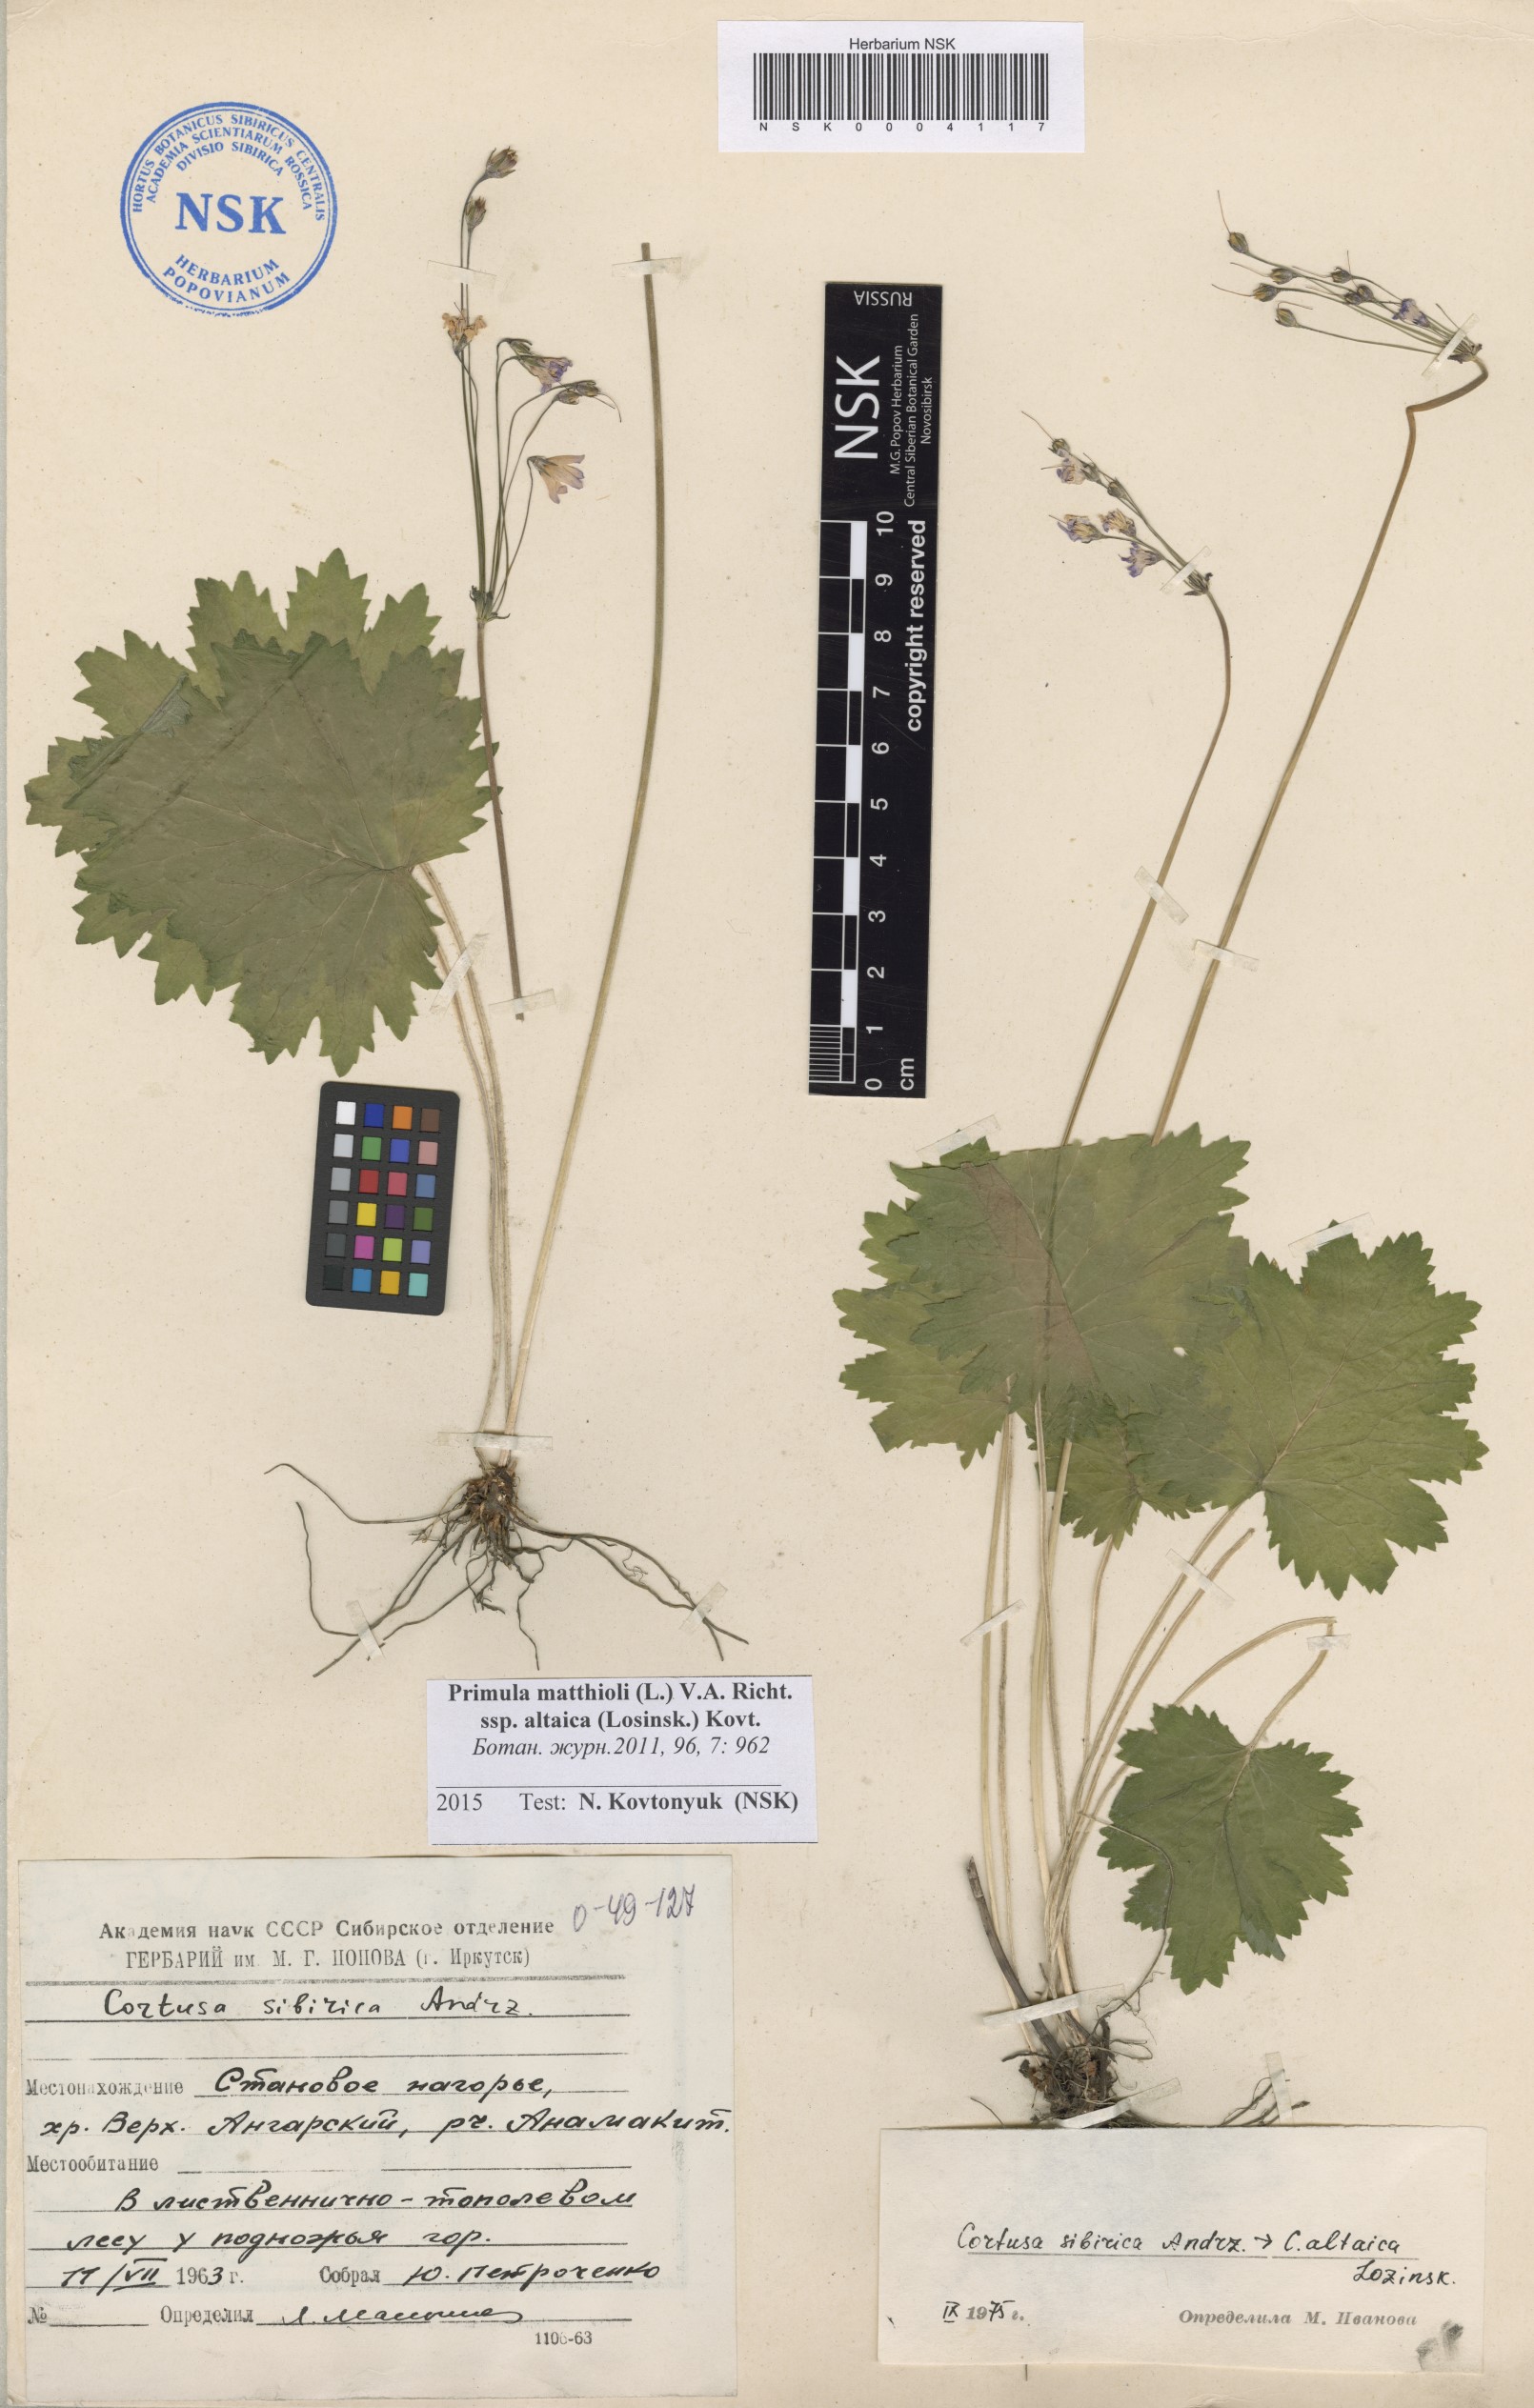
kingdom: Plantae
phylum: Tracheophyta
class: Magnoliopsida
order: Ericales
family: Primulaceae
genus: Primula
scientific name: Primula matthioli
